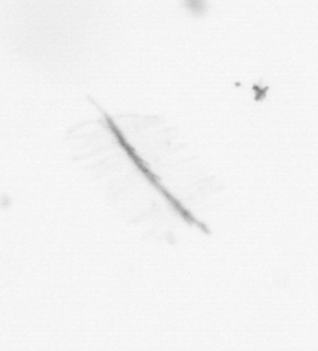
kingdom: Chromista
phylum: Ochrophyta
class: Bacillariophyceae
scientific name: Bacillariophyceae
